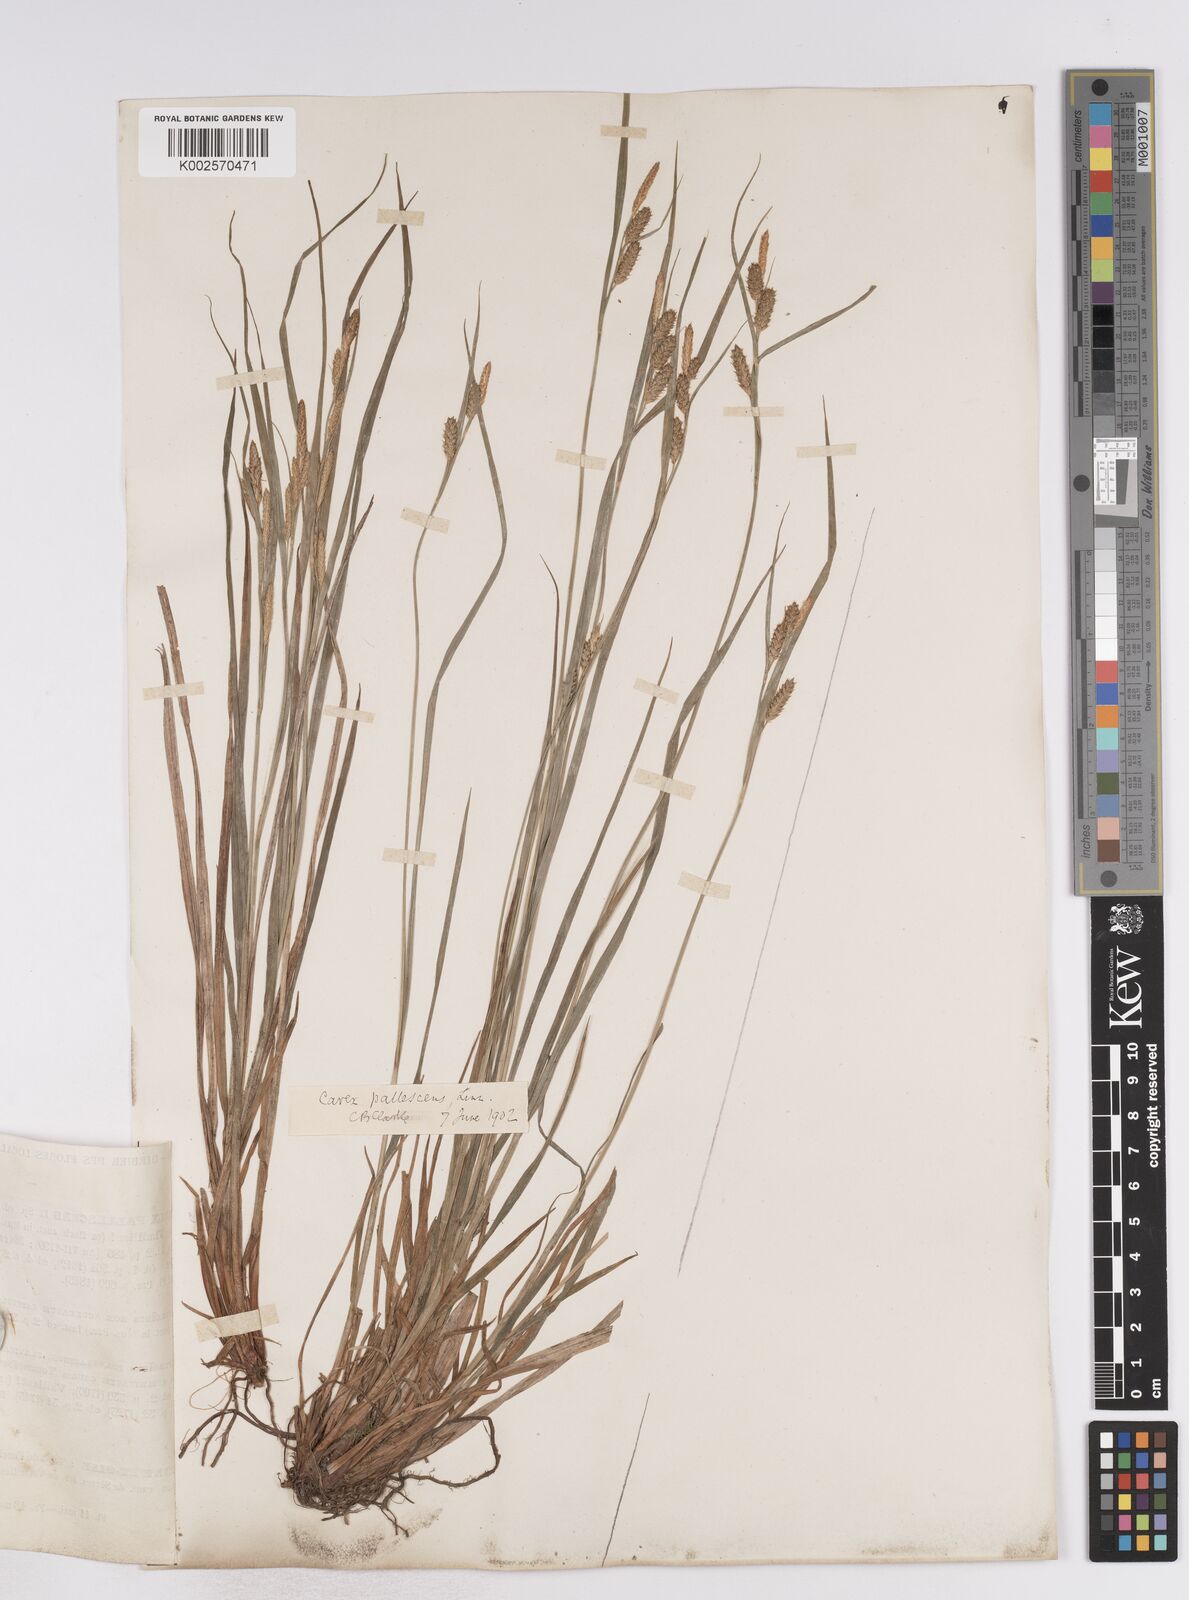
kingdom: Plantae
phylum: Tracheophyta
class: Liliopsida
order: Poales
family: Cyperaceae
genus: Carex
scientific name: Carex pallescens
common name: Pale sedge
